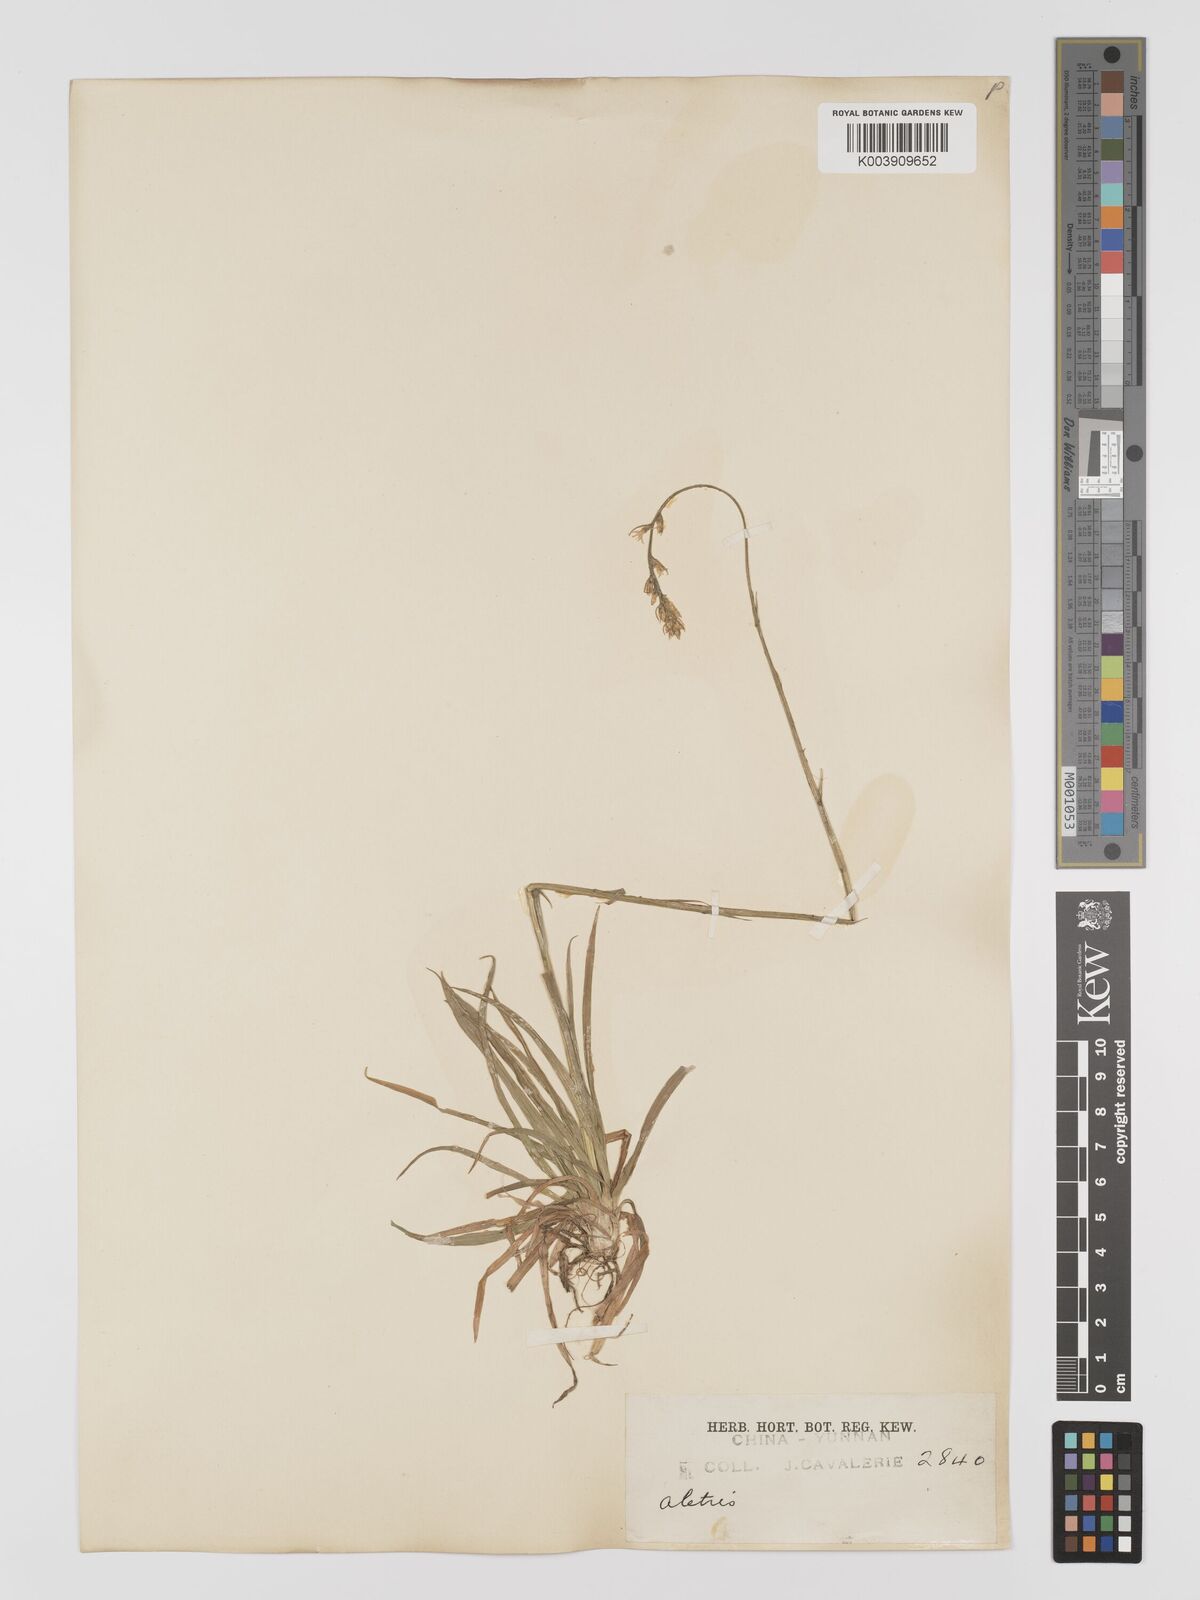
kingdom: Plantae
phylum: Tracheophyta
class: Liliopsida
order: Dioscoreales
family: Nartheciaceae
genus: Aletris
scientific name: Aletris spicata
